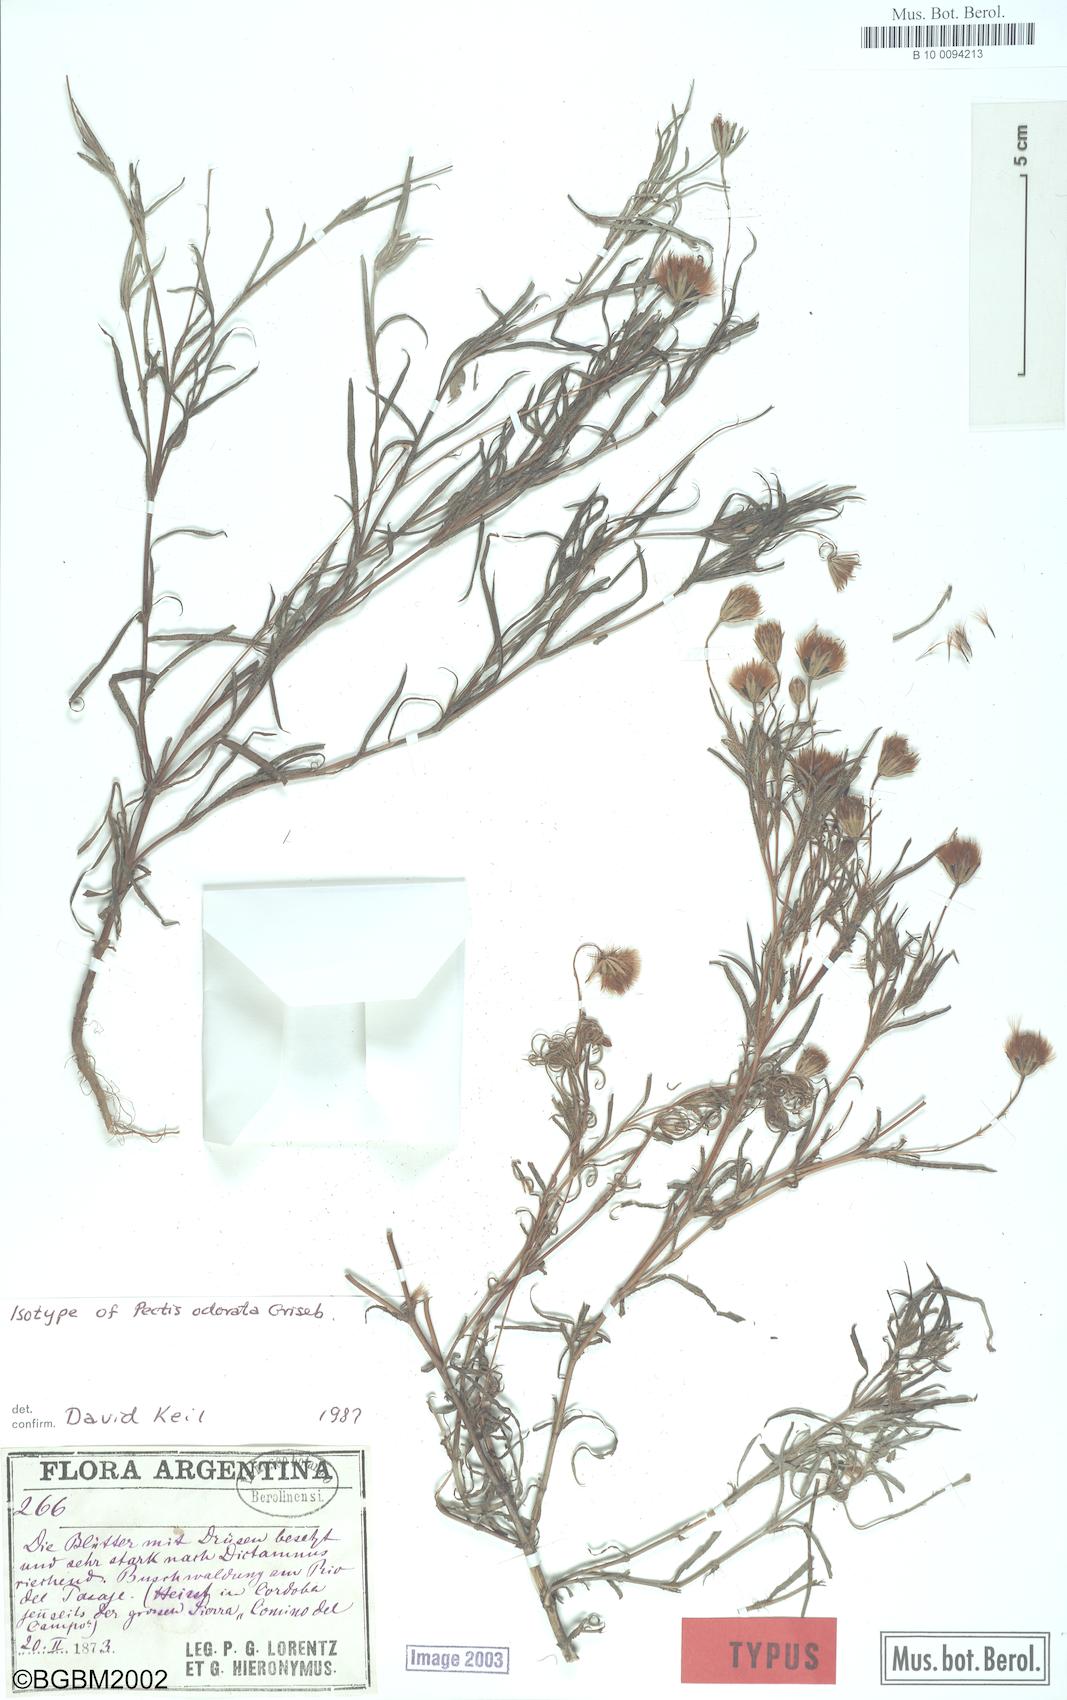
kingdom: Plantae
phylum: Tracheophyta
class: Magnoliopsida
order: Asterales
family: Asteraceae
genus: Pectis
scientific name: Pectis odorata
